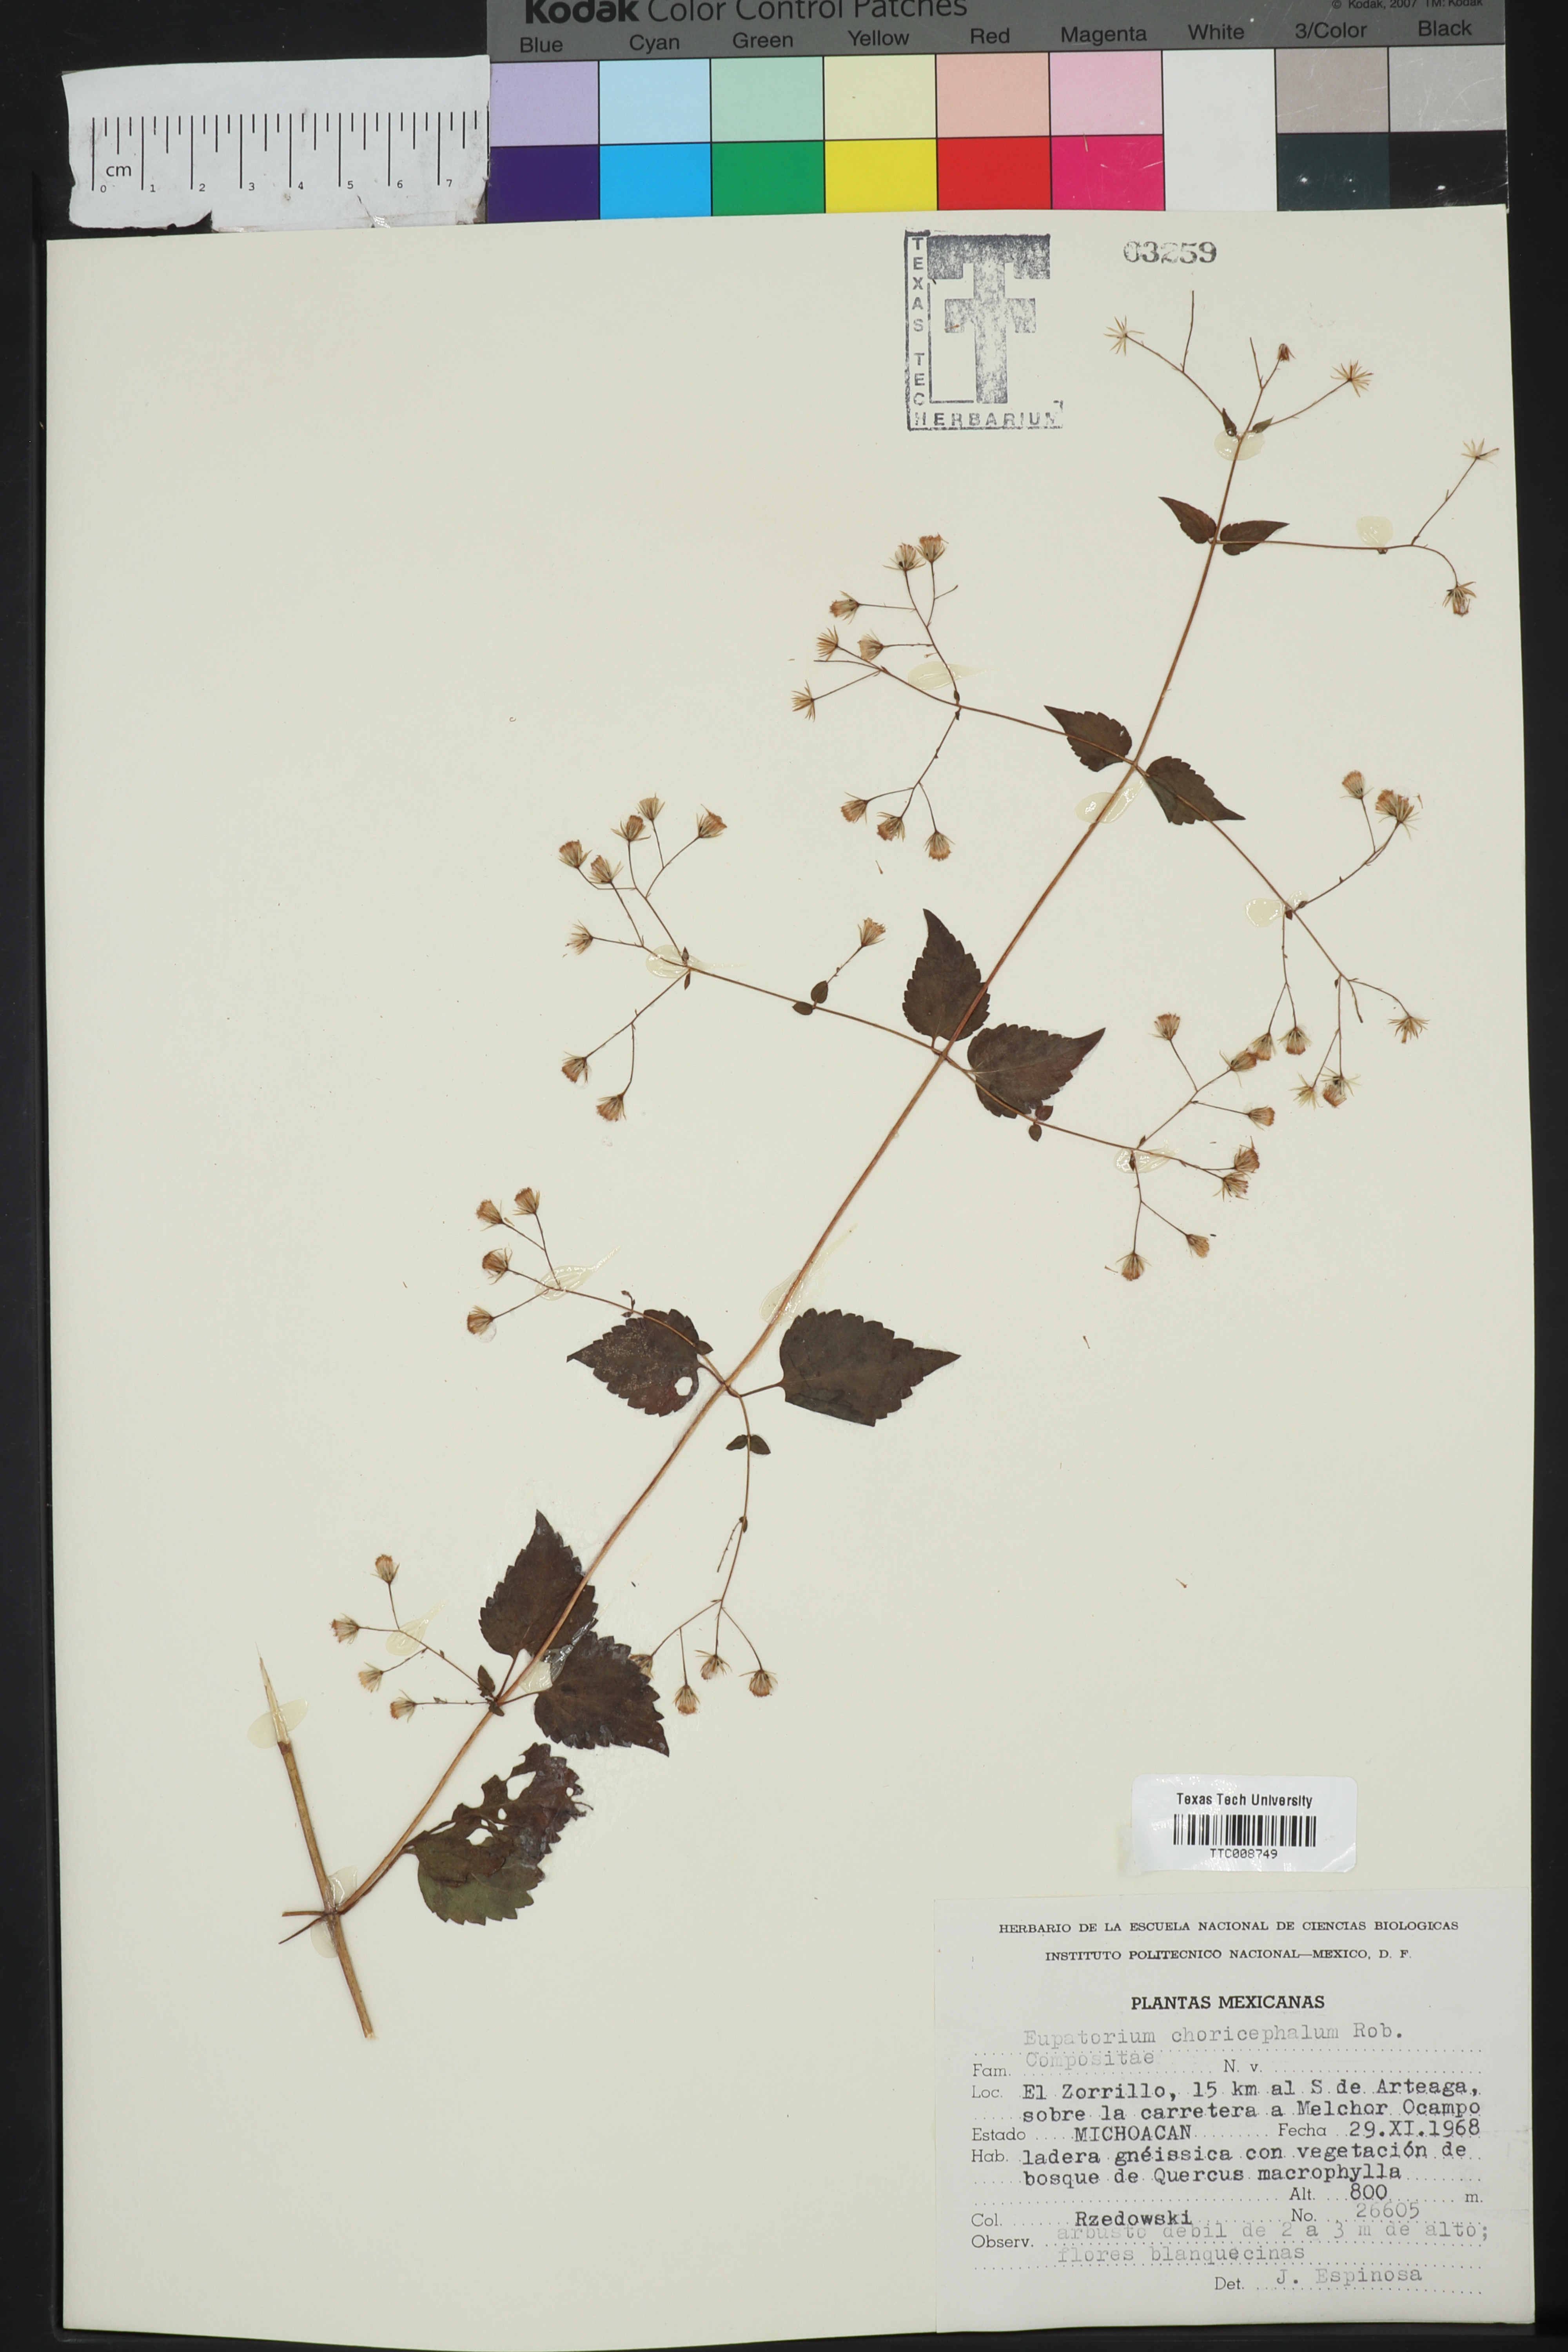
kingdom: Plantae
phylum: Tracheophyta
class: Magnoliopsida
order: Asterales
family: Asteraceae
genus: Ageratina
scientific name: Ageratina choricephala
